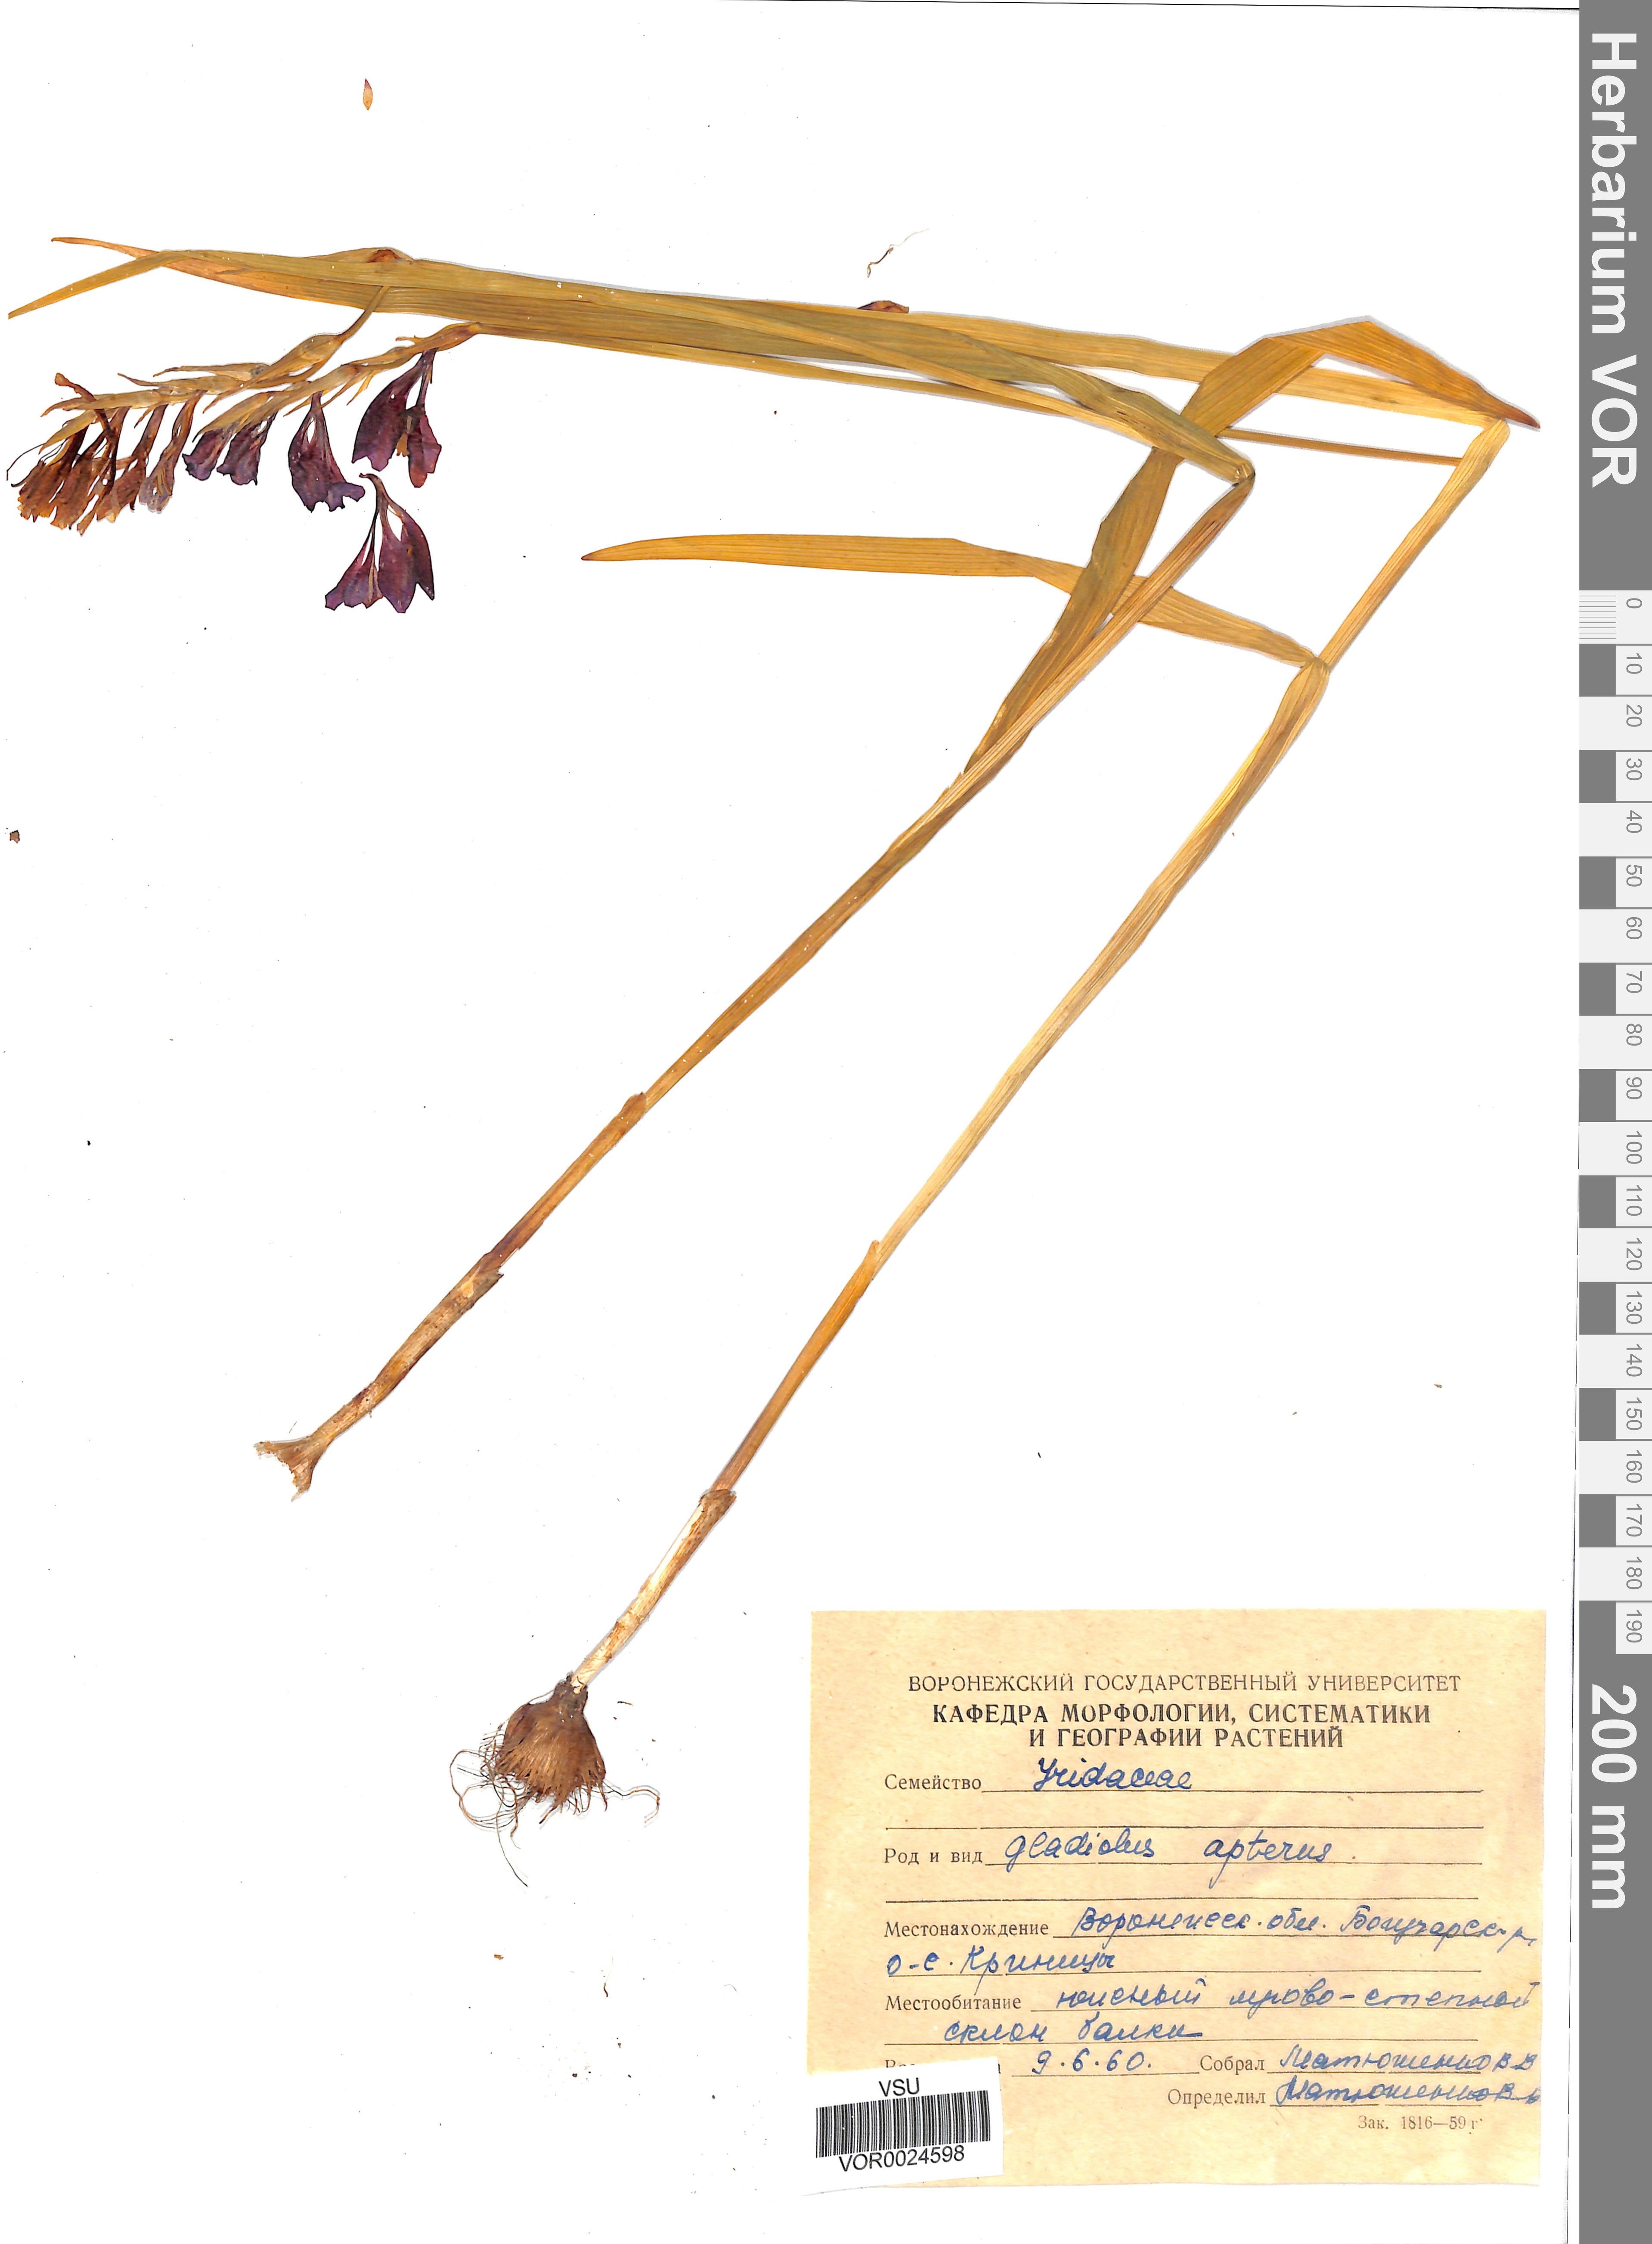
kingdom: Plantae
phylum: Tracheophyta
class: Liliopsida
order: Asparagales
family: Iridaceae
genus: Gladiolus
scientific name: Gladiolus tenuis
